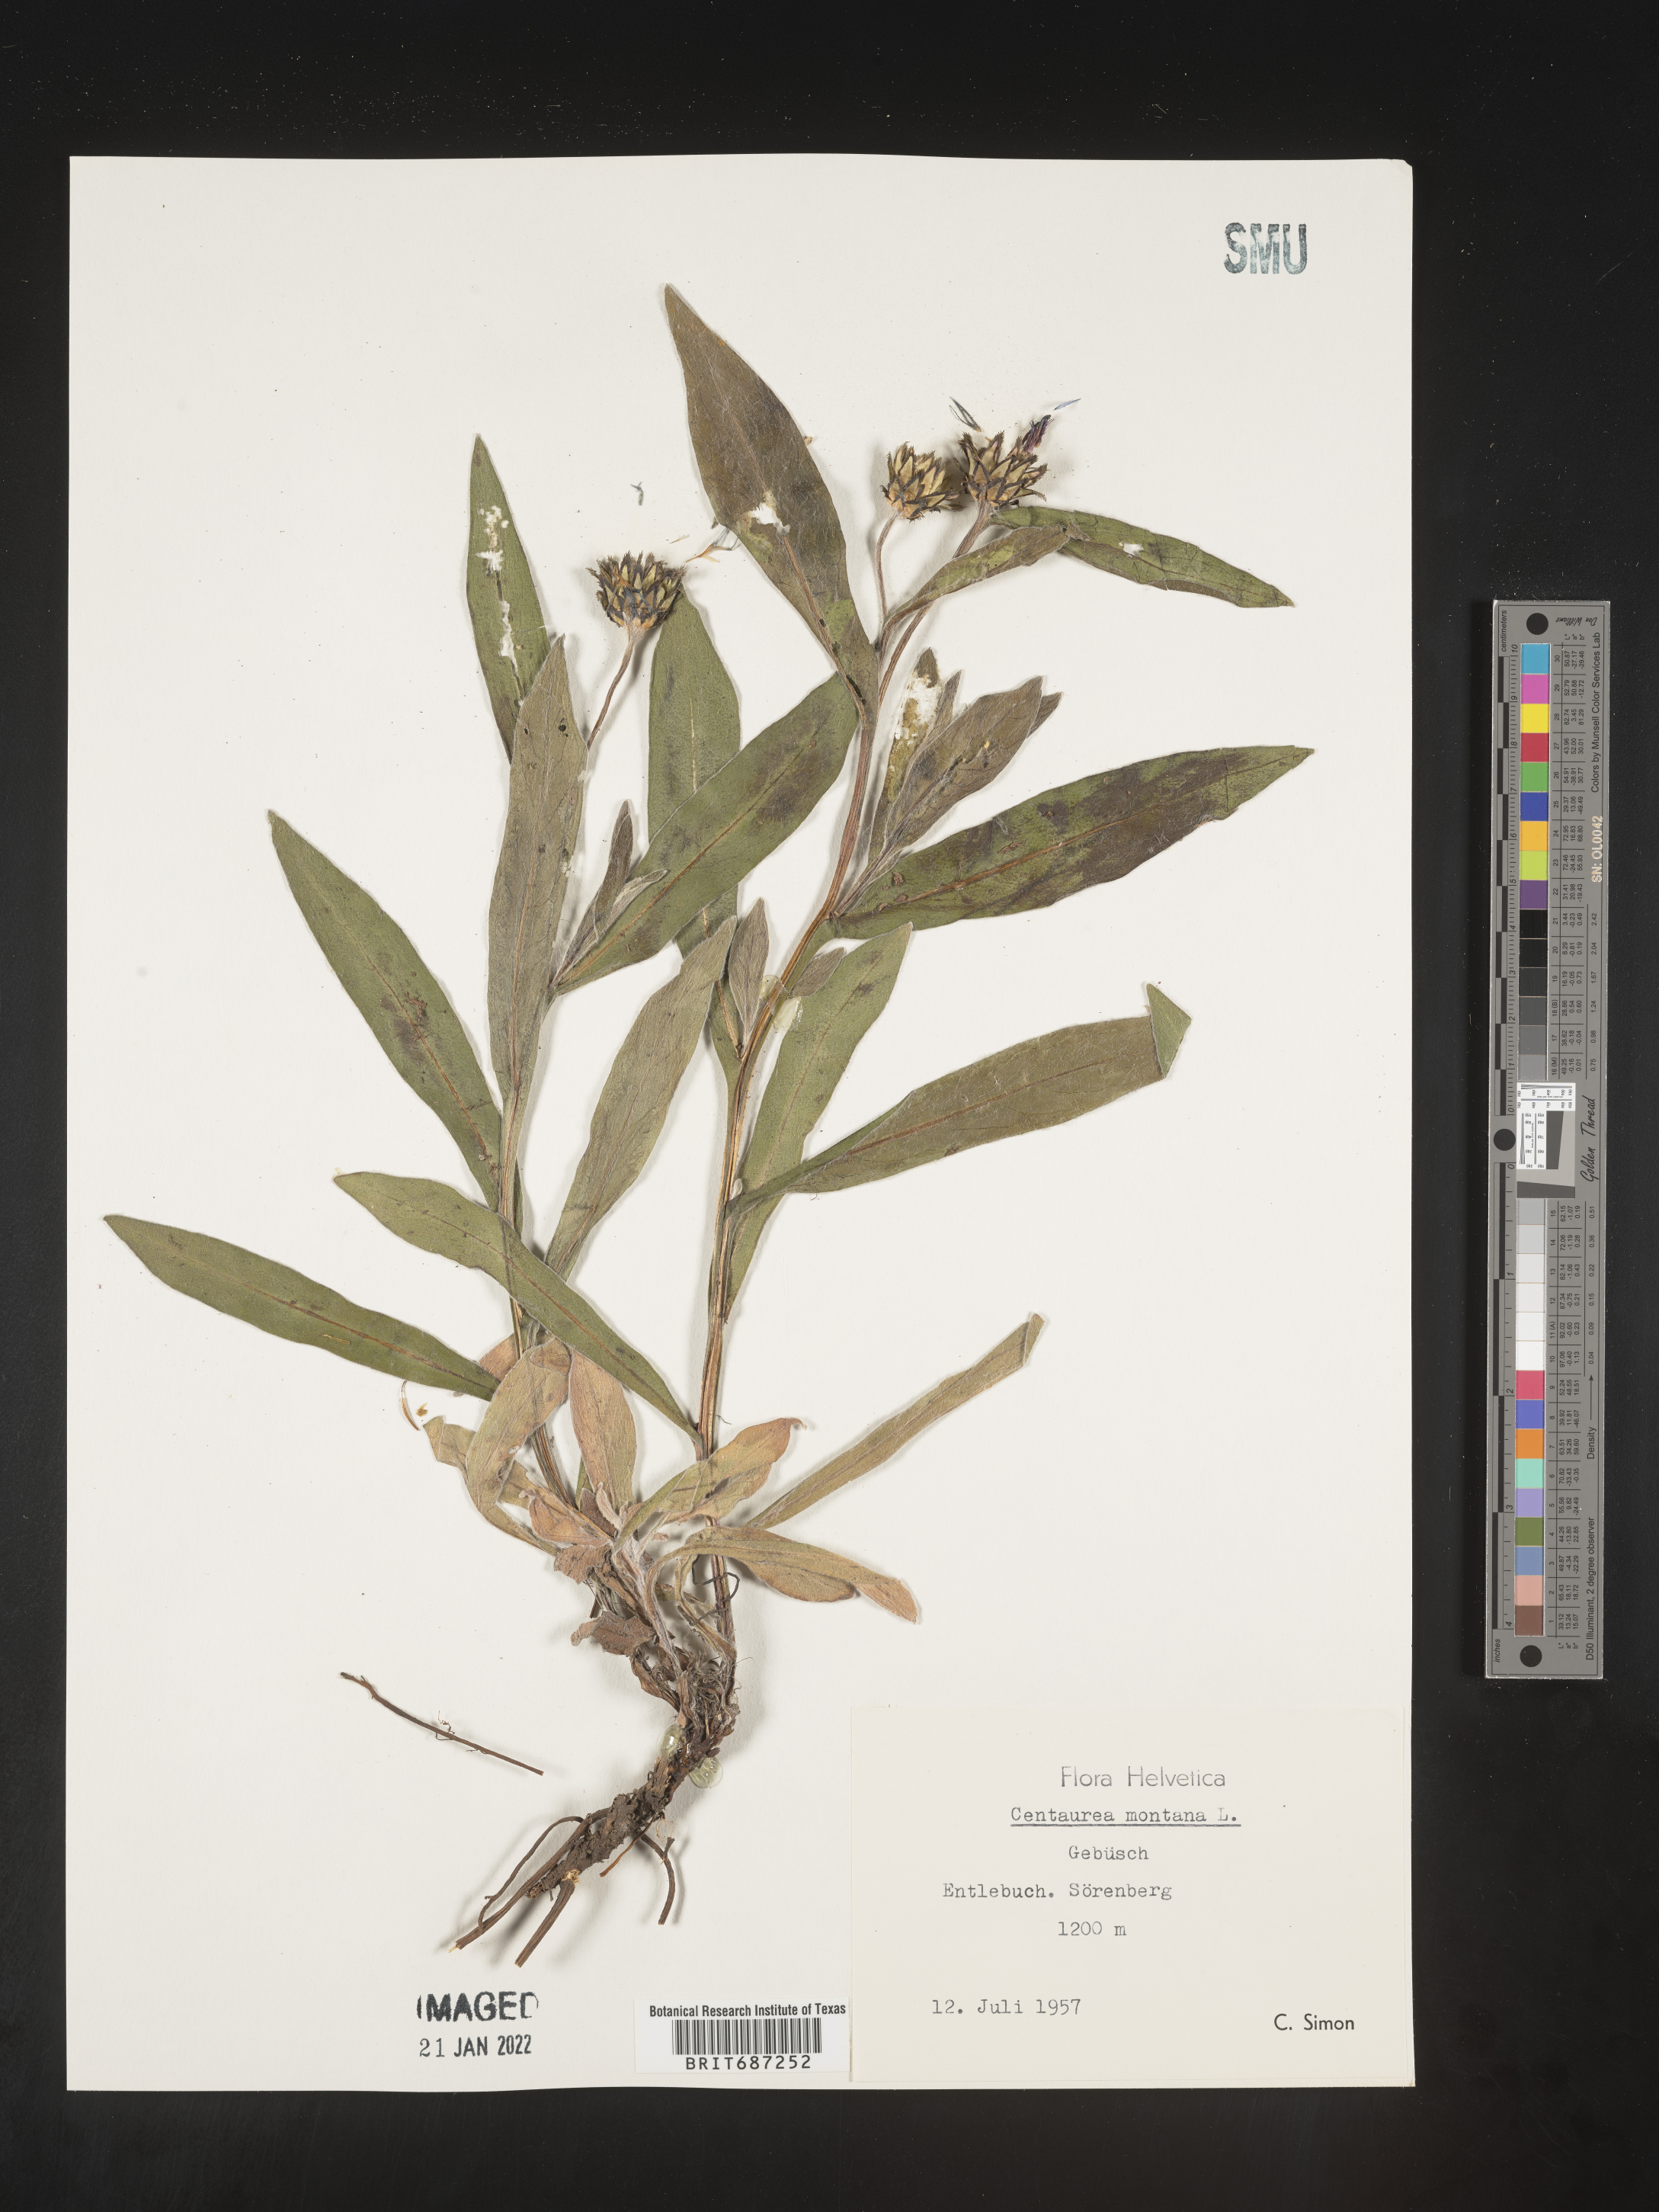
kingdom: Plantae
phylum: Tracheophyta
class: Magnoliopsida
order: Asterales
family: Asteraceae
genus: Centaurea
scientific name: Centaurea
